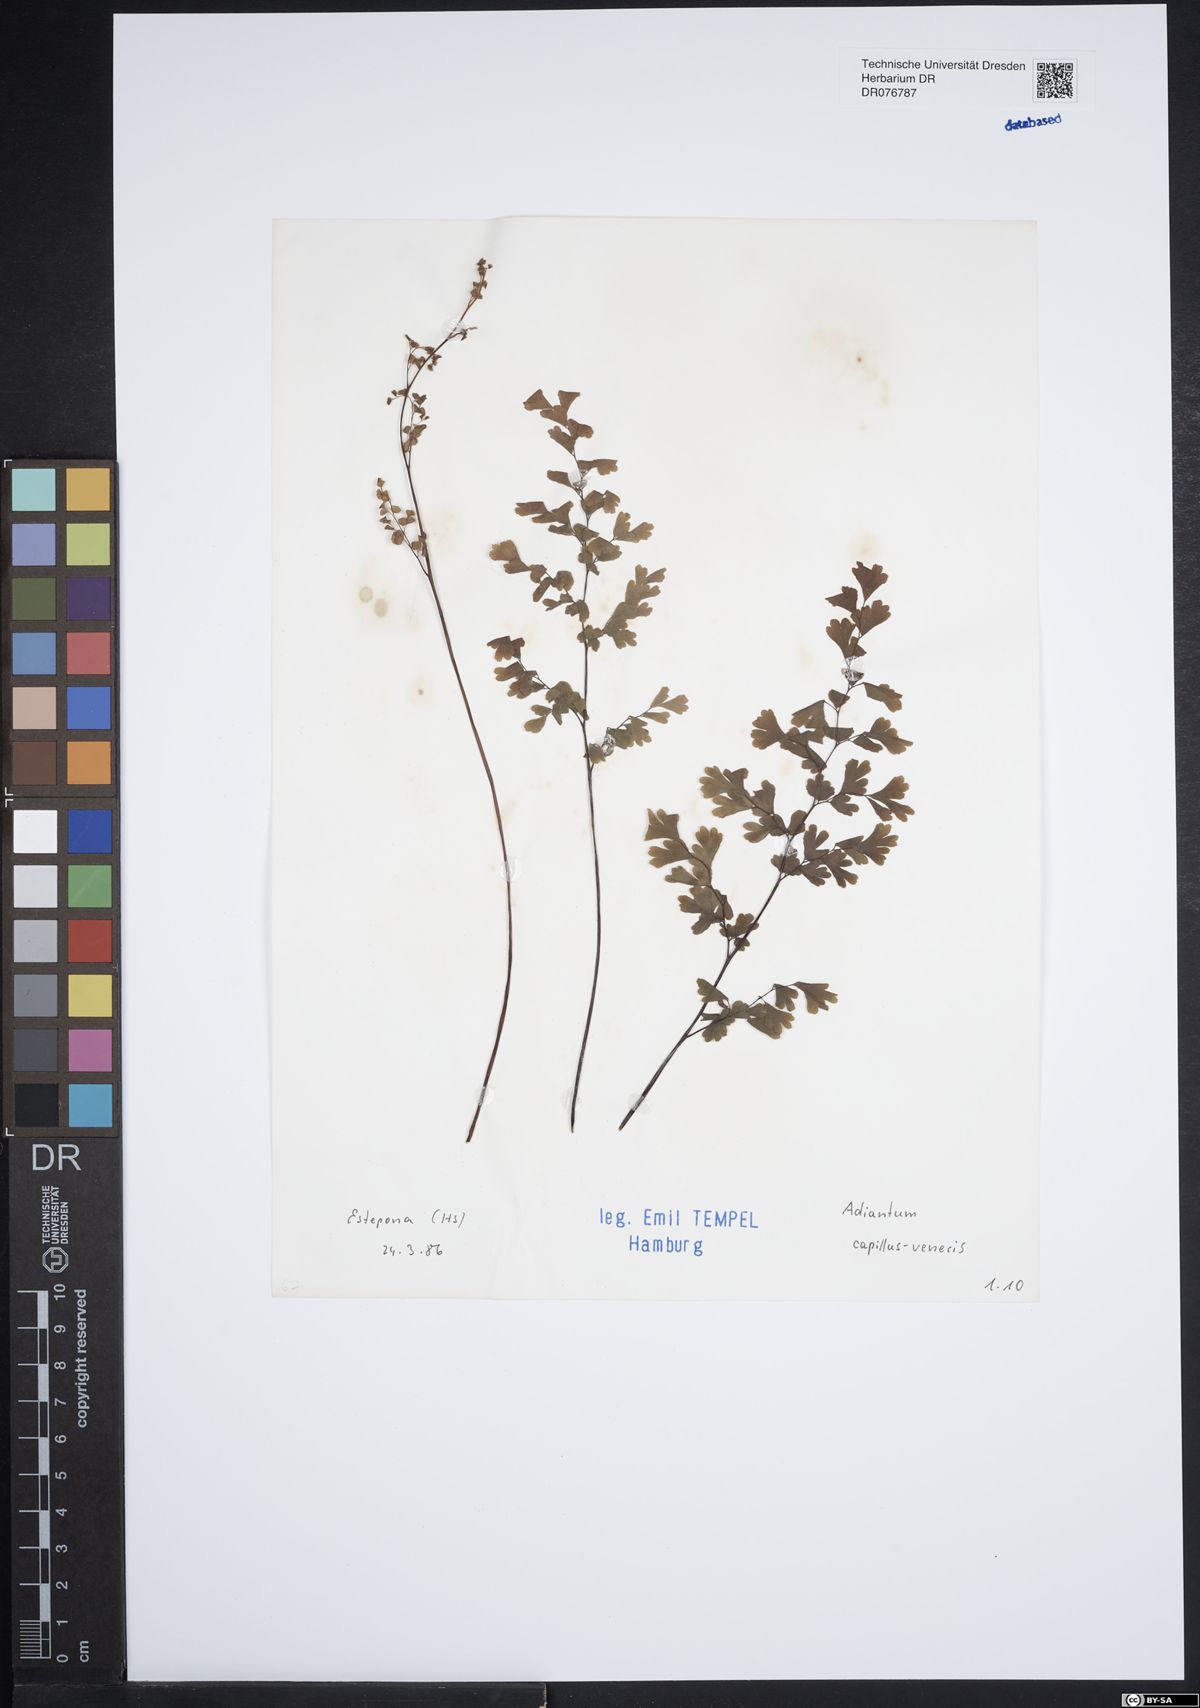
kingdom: Plantae
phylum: Tracheophyta
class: Polypodiopsida
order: Polypodiales
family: Pteridaceae
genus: Adiantum
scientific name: Adiantum capillus-veneris
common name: Maidenhair fern
